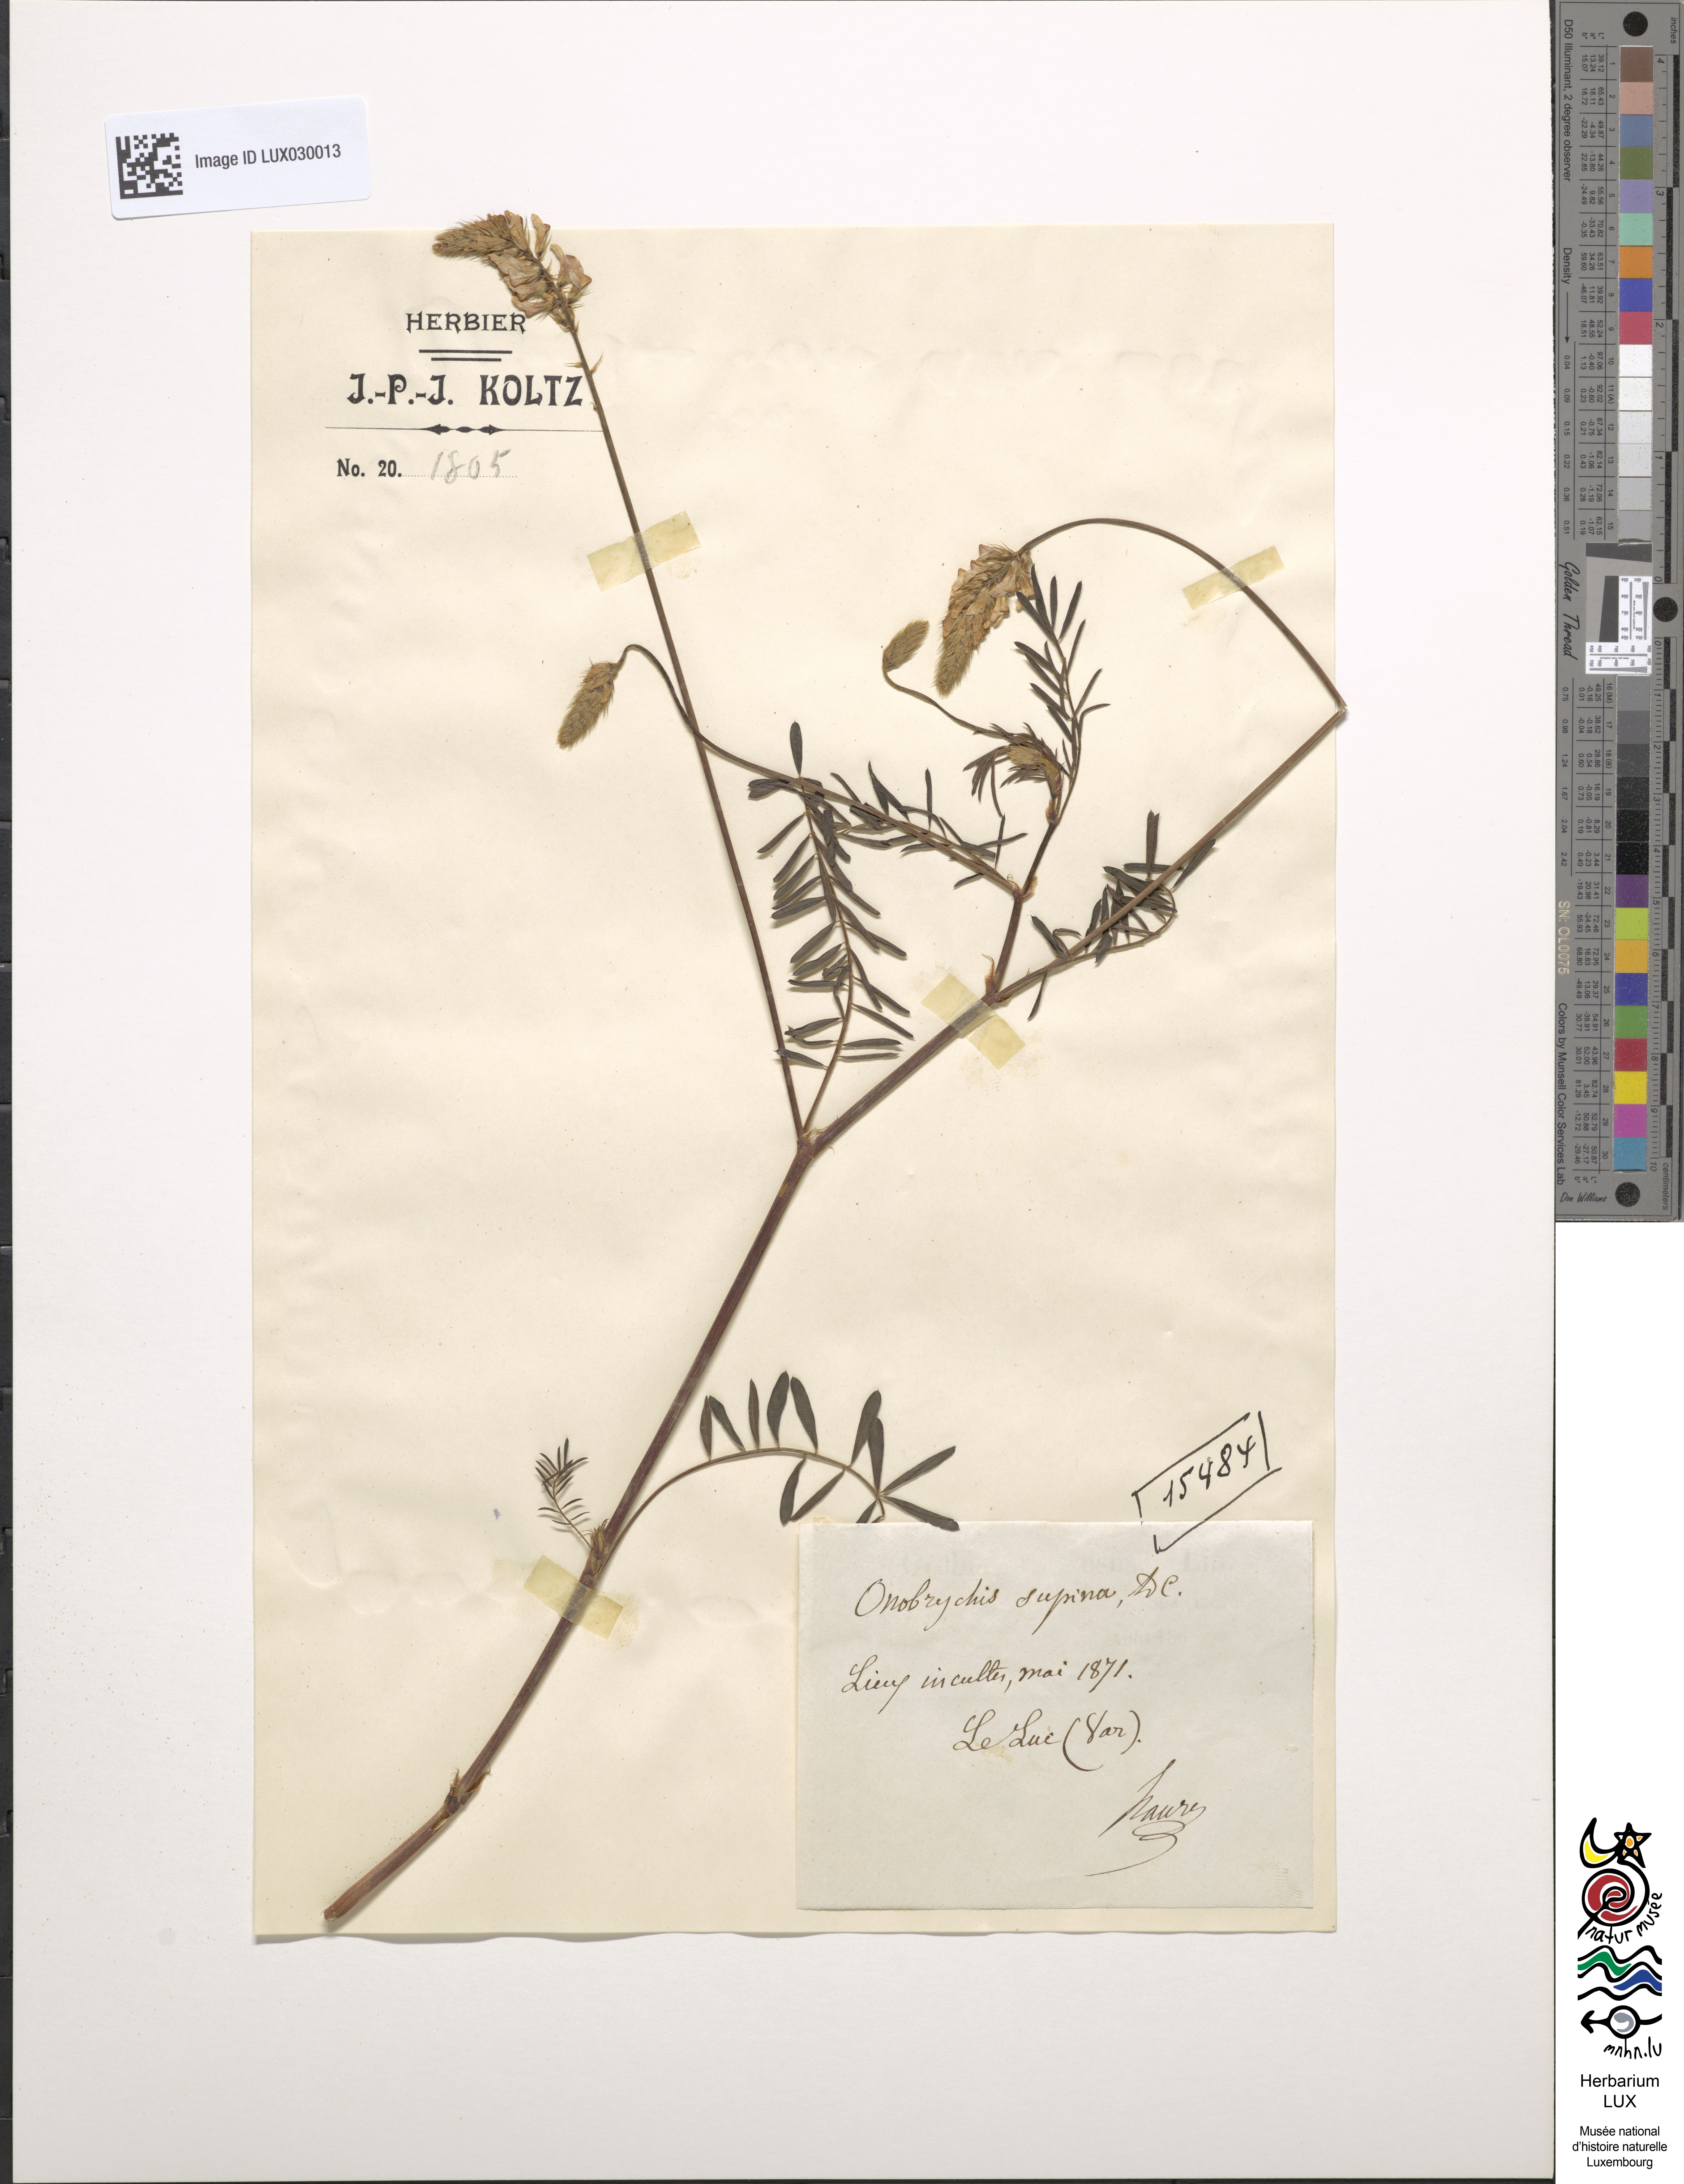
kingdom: Plantae
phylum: Tracheophyta
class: Magnoliopsida
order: Fabales
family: Fabaceae
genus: Onobrychis
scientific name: Onobrychis supina
